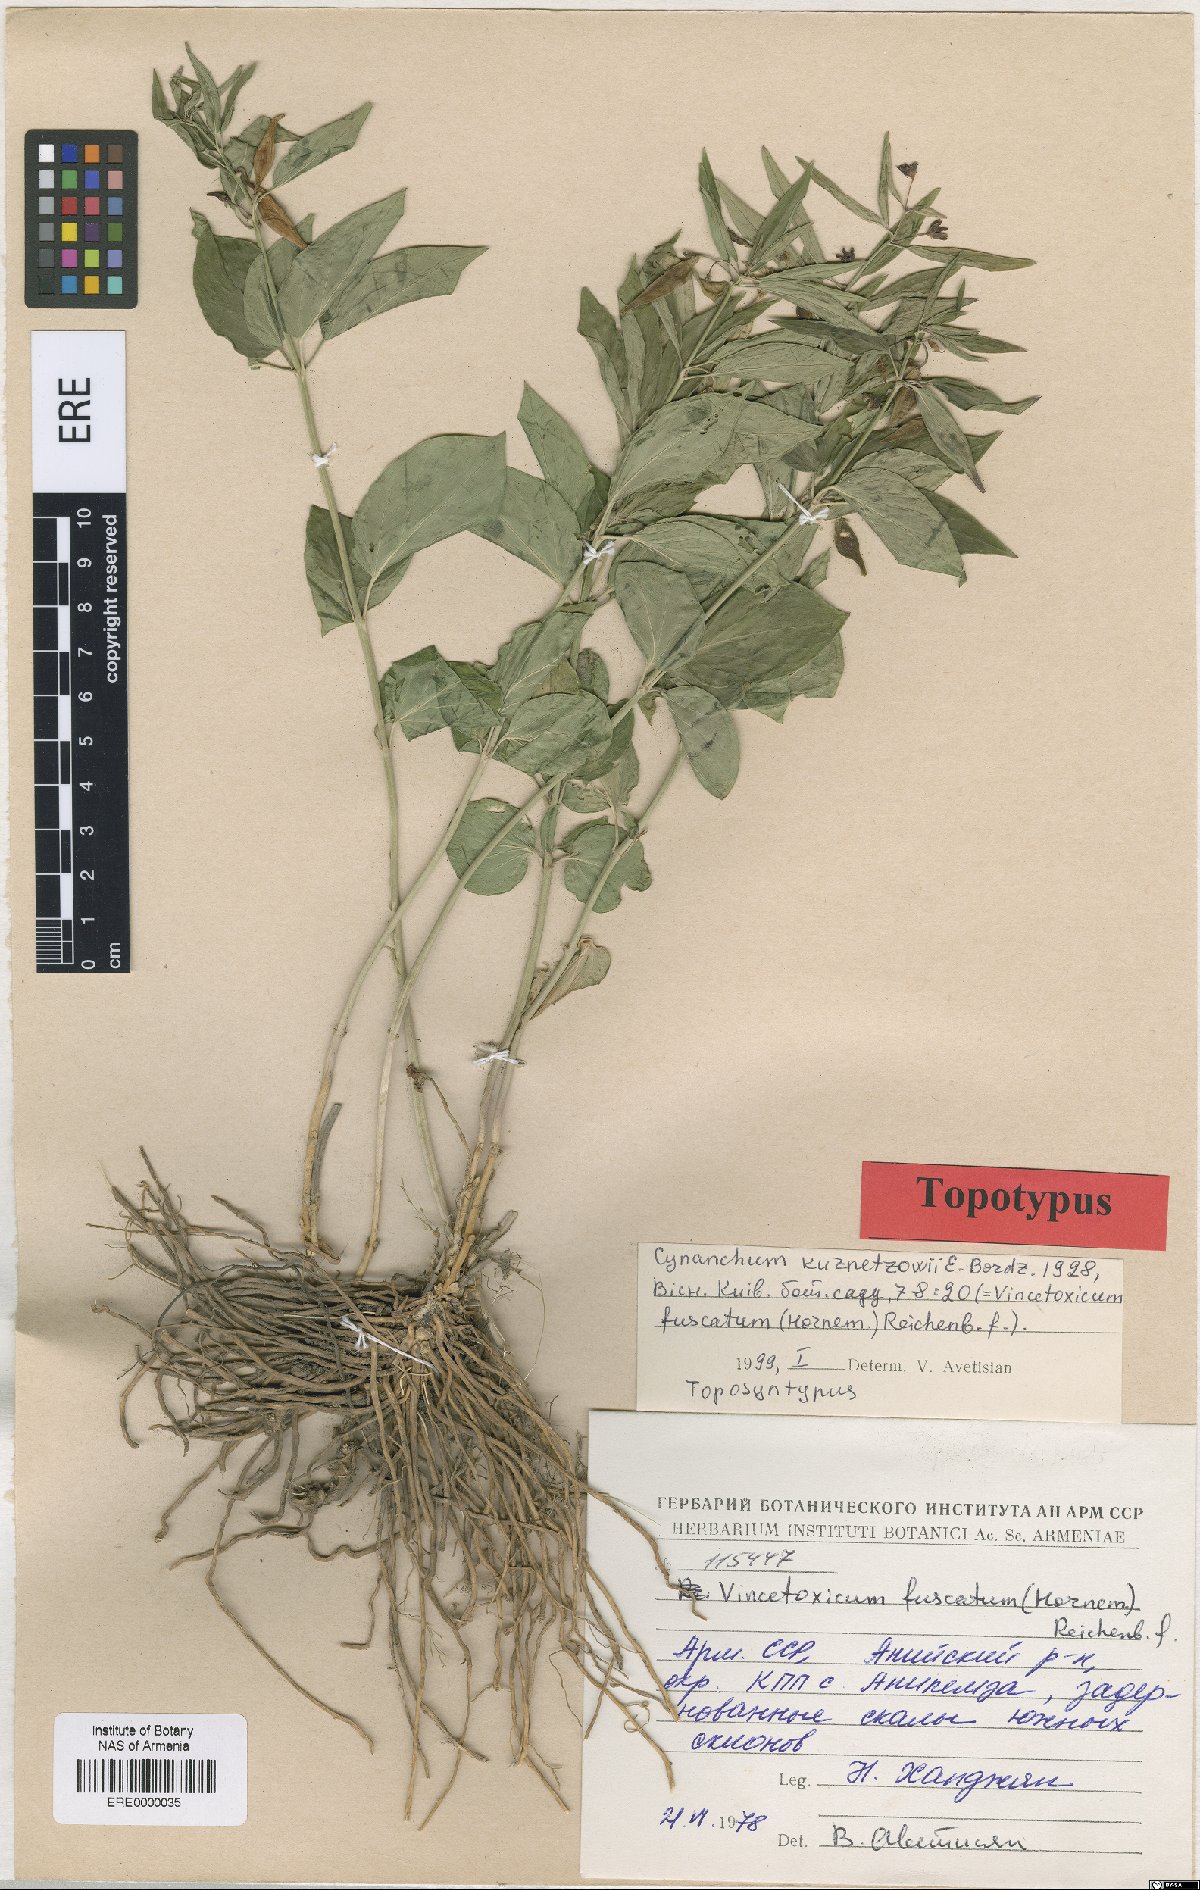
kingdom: Plantae
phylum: Tracheophyta
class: Magnoliopsida
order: Gentianales
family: Apocynaceae
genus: Vincetoxicum
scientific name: Vincetoxicum fuscatum
